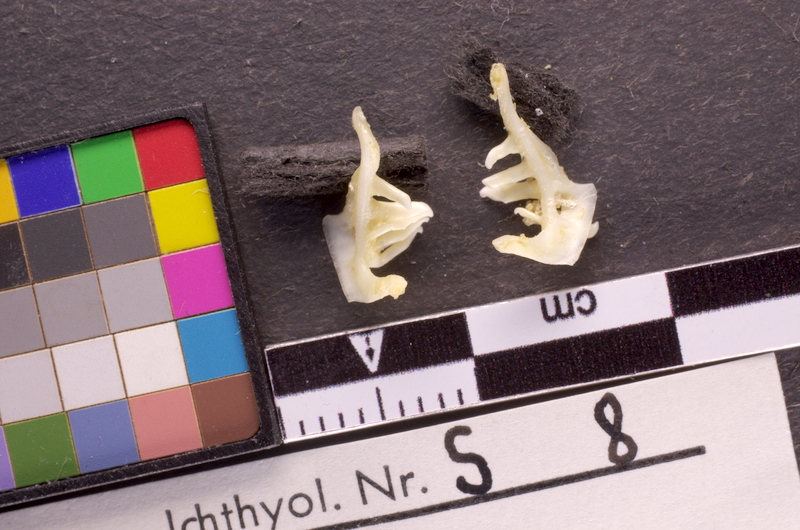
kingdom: Animalia
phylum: Chordata
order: Cypriniformes
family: Cyprinidae
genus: Telestes
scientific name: Telestes souffia
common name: Souffia
